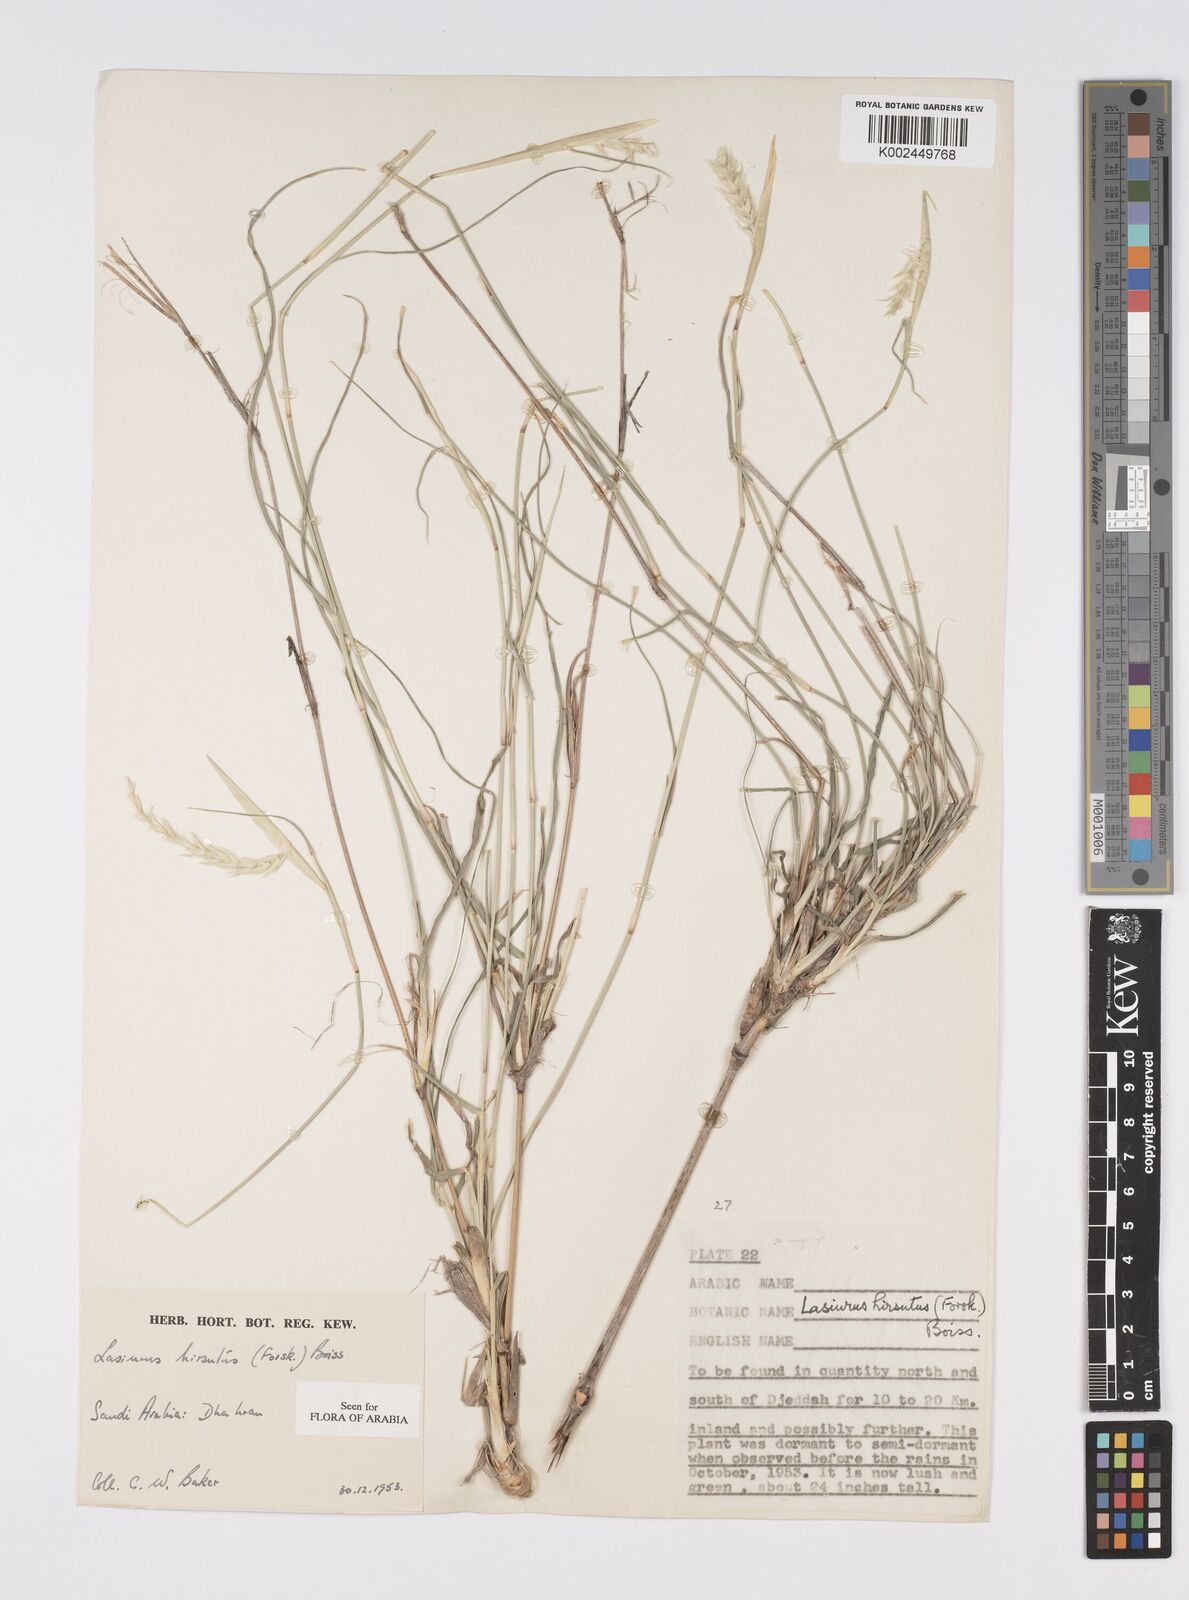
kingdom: Plantae
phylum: Tracheophyta
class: Liliopsida
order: Poales
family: Poaceae
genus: Lasiurus
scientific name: Lasiurus scindicus
